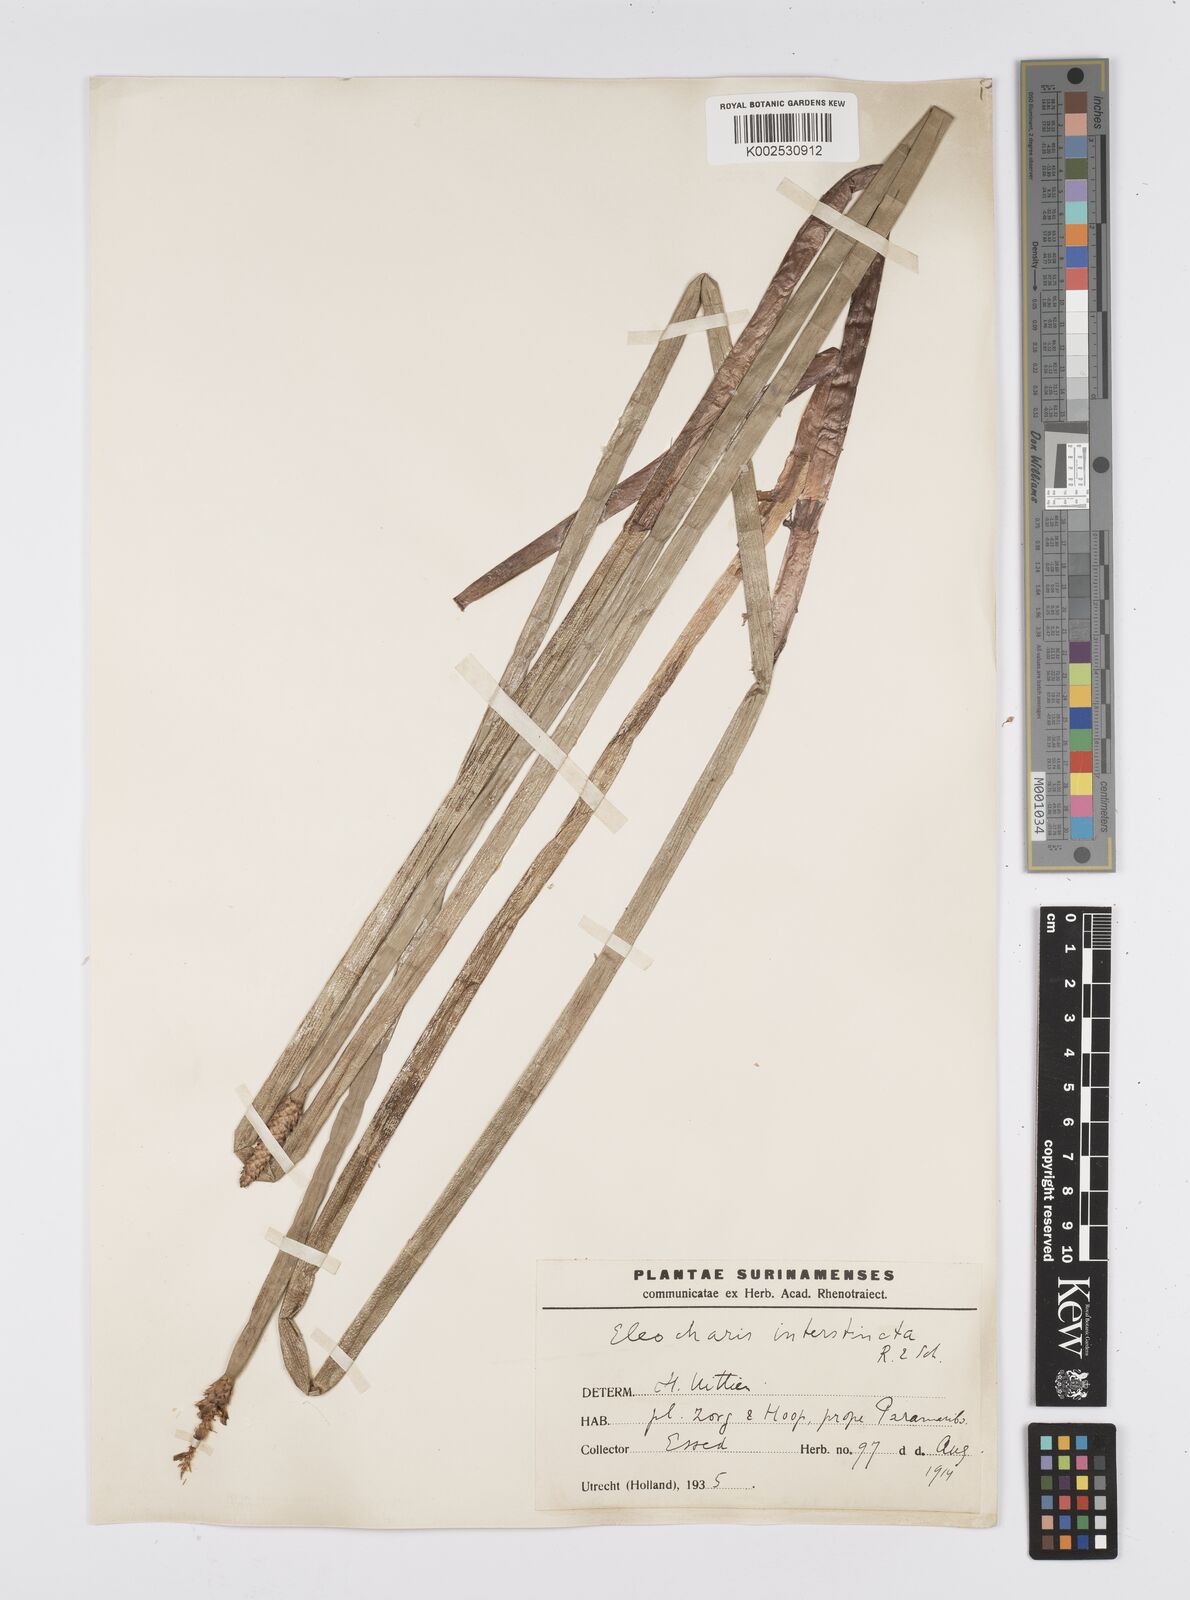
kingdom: Plantae
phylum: Tracheophyta
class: Liliopsida
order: Poales
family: Cyperaceae
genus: Eleocharis
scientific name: Eleocharis interstincta
